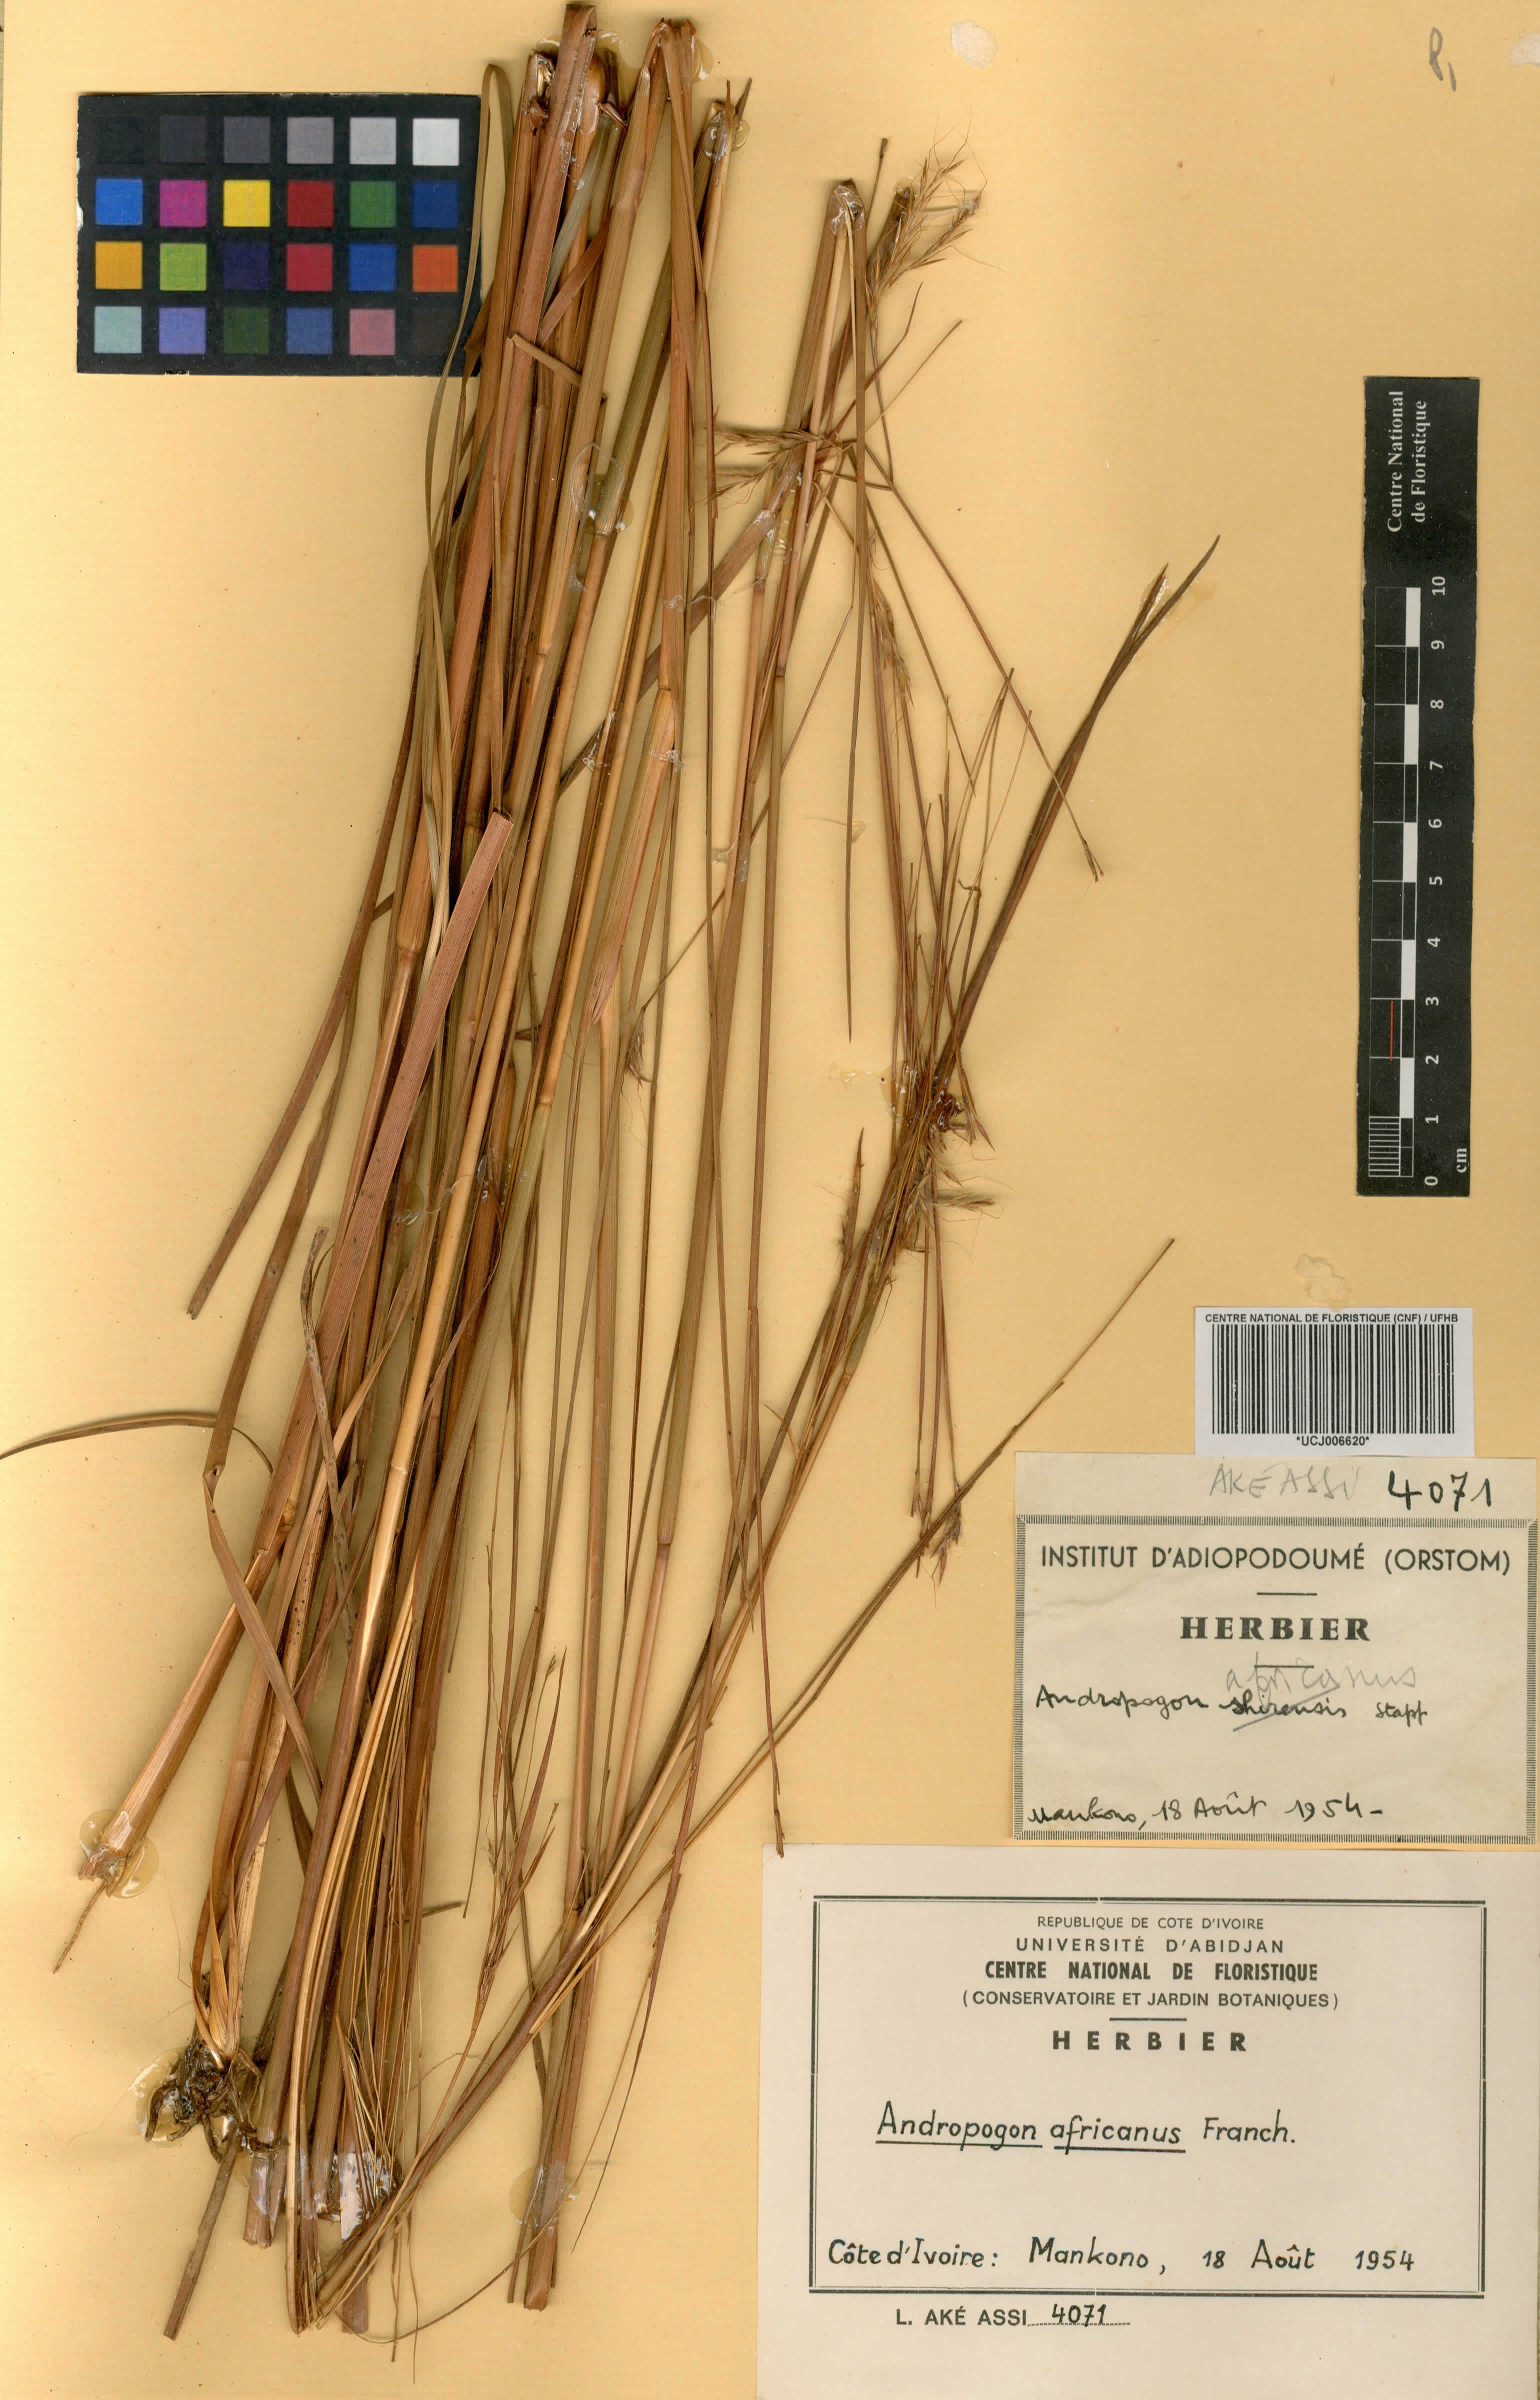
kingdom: Plantae
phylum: Tracheophyta
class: Liliopsida
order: Poales
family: Poaceae
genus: Andropogon
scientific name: Andropogon africanus
